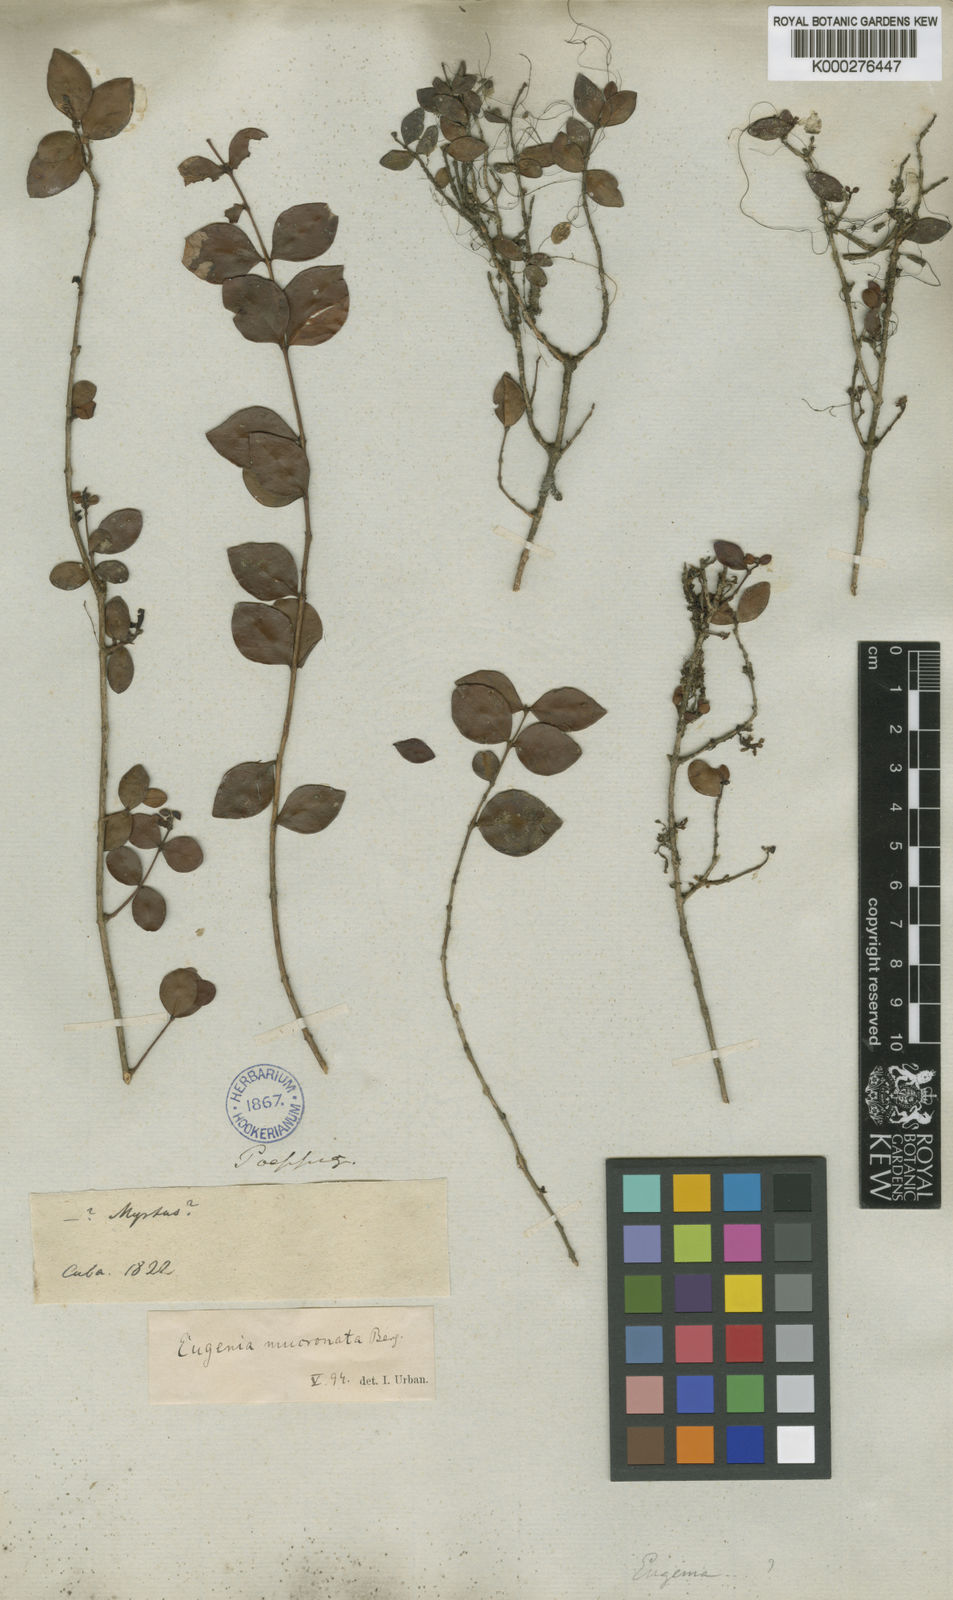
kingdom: Plantae
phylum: Tracheophyta
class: Magnoliopsida
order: Myrtales
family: Myrtaceae
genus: Eugenia
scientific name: Eugenia mucronata
